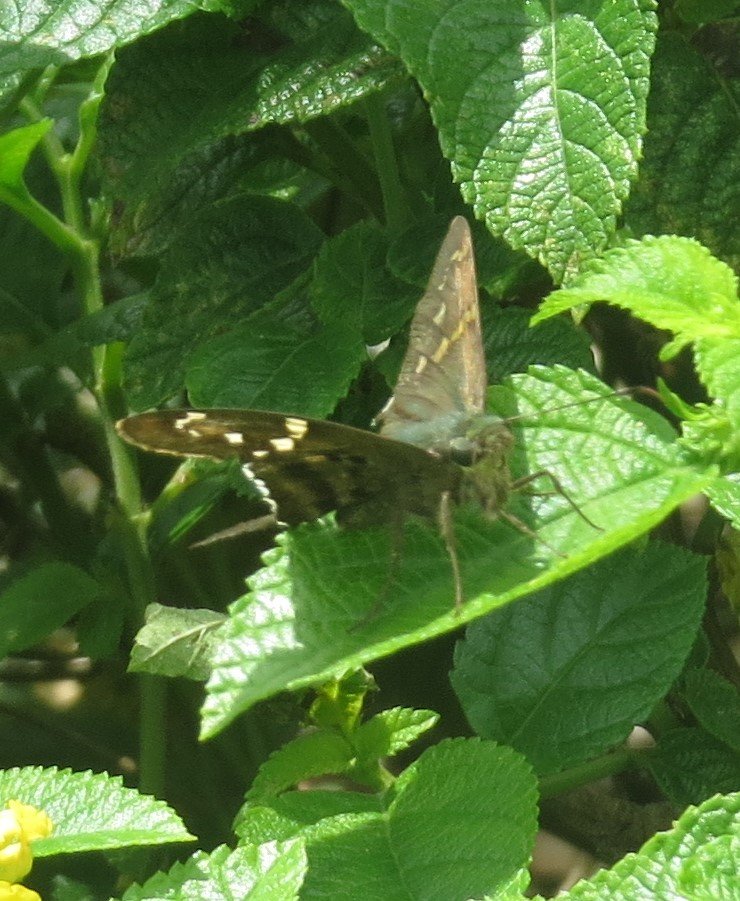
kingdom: Animalia
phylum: Arthropoda
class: Insecta
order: Lepidoptera
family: Hesperiidae
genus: Urbanus
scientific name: Urbanus proteus
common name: Long-tailed Skipper
